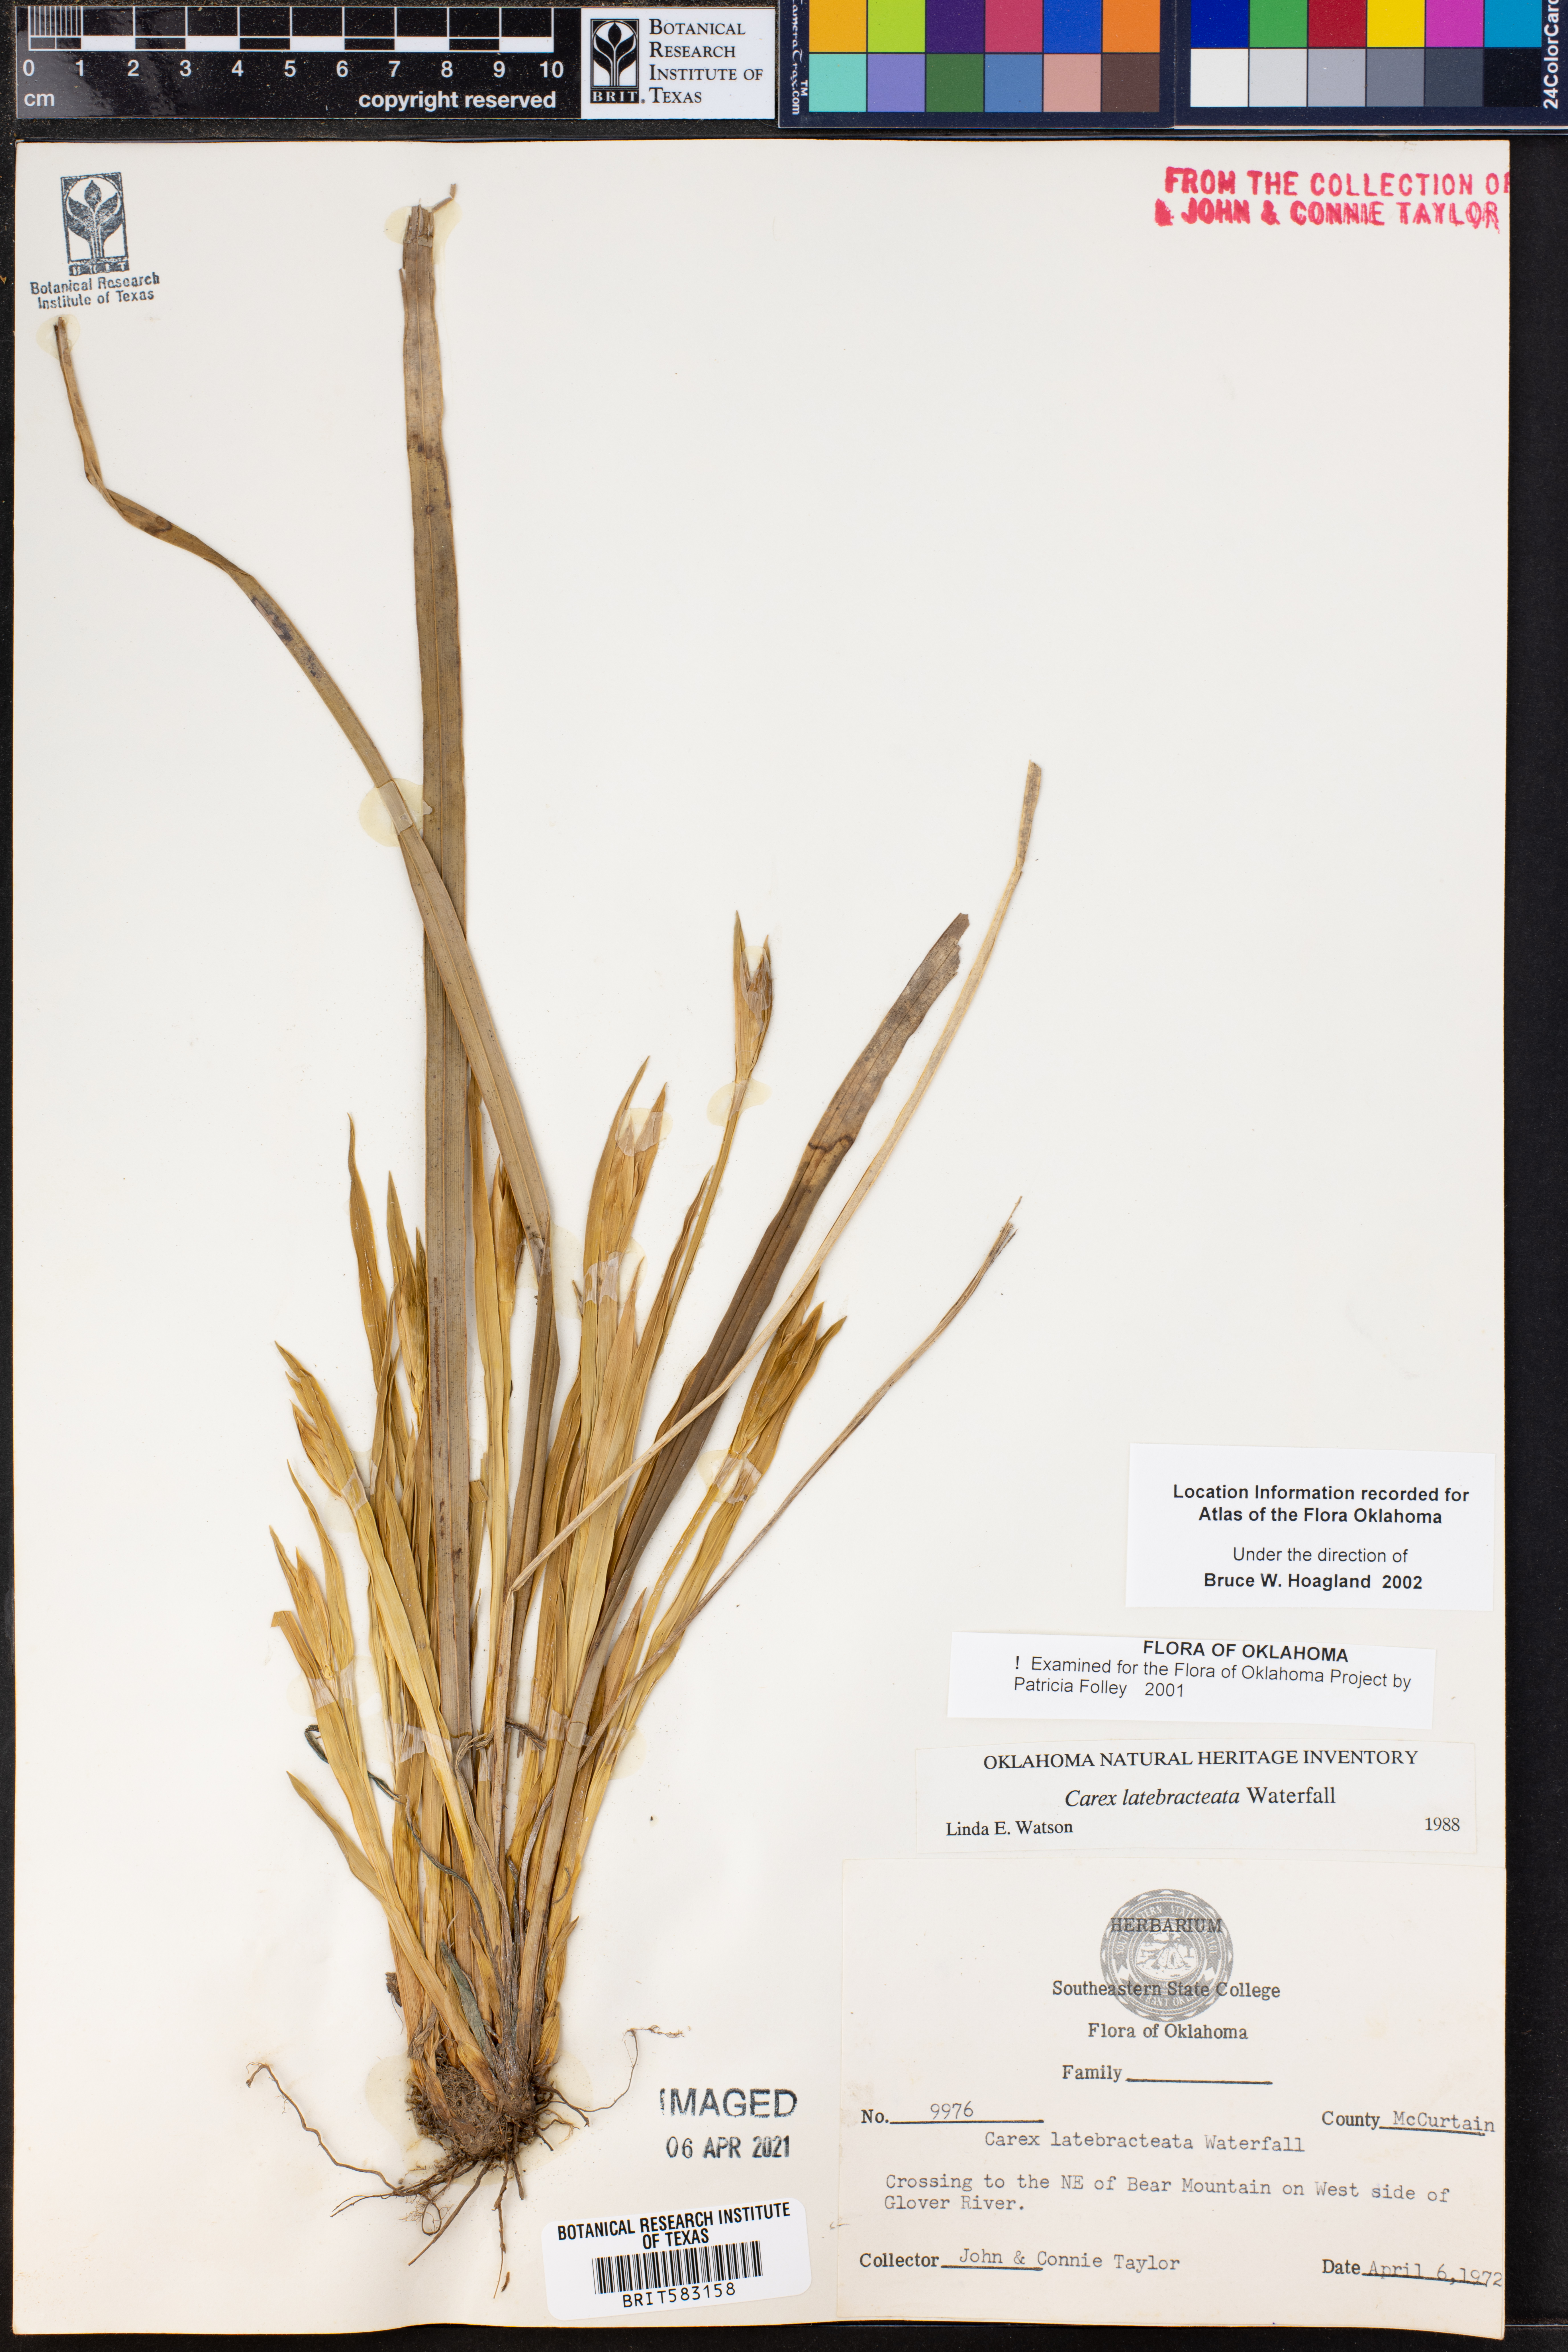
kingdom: Plantae
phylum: Tracheophyta
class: Liliopsida
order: Poales
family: Cyperaceae
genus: Carex
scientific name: Carex latebracteata
